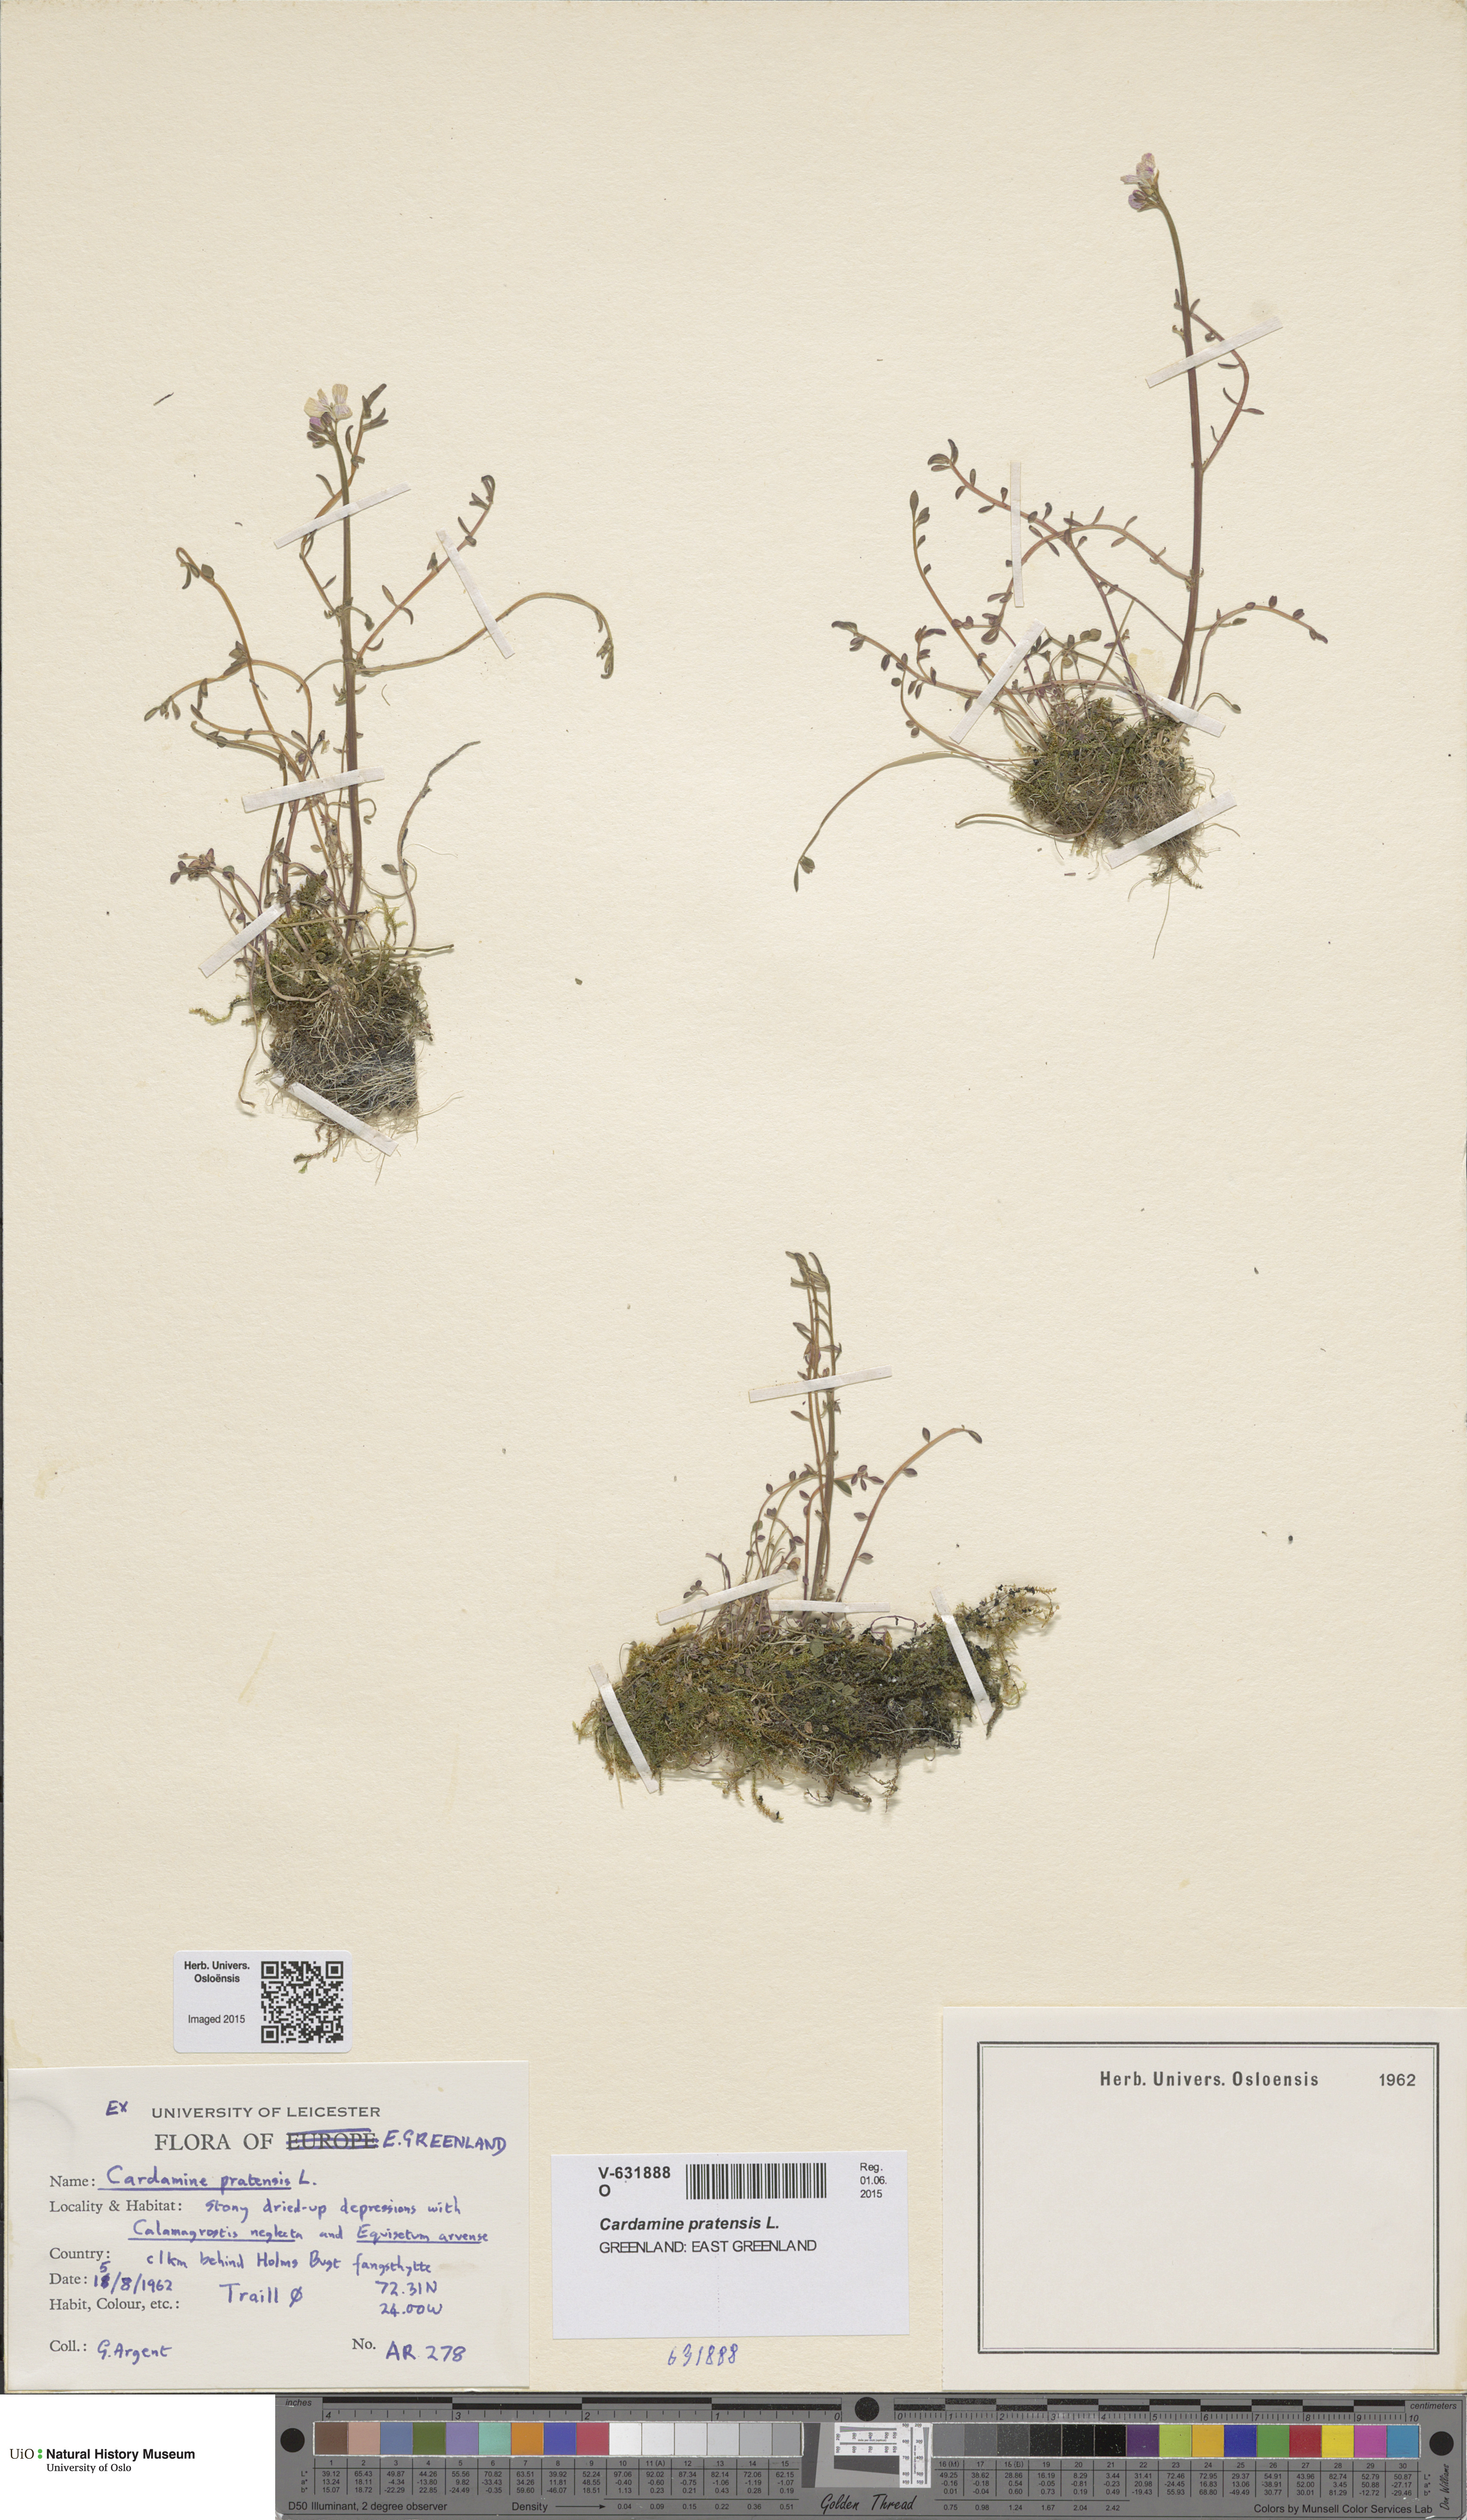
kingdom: Plantae
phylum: Tracheophyta
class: Magnoliopsida
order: Brassicales
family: Brassicaceae
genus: Cardamine
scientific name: Cardamine nymanii
